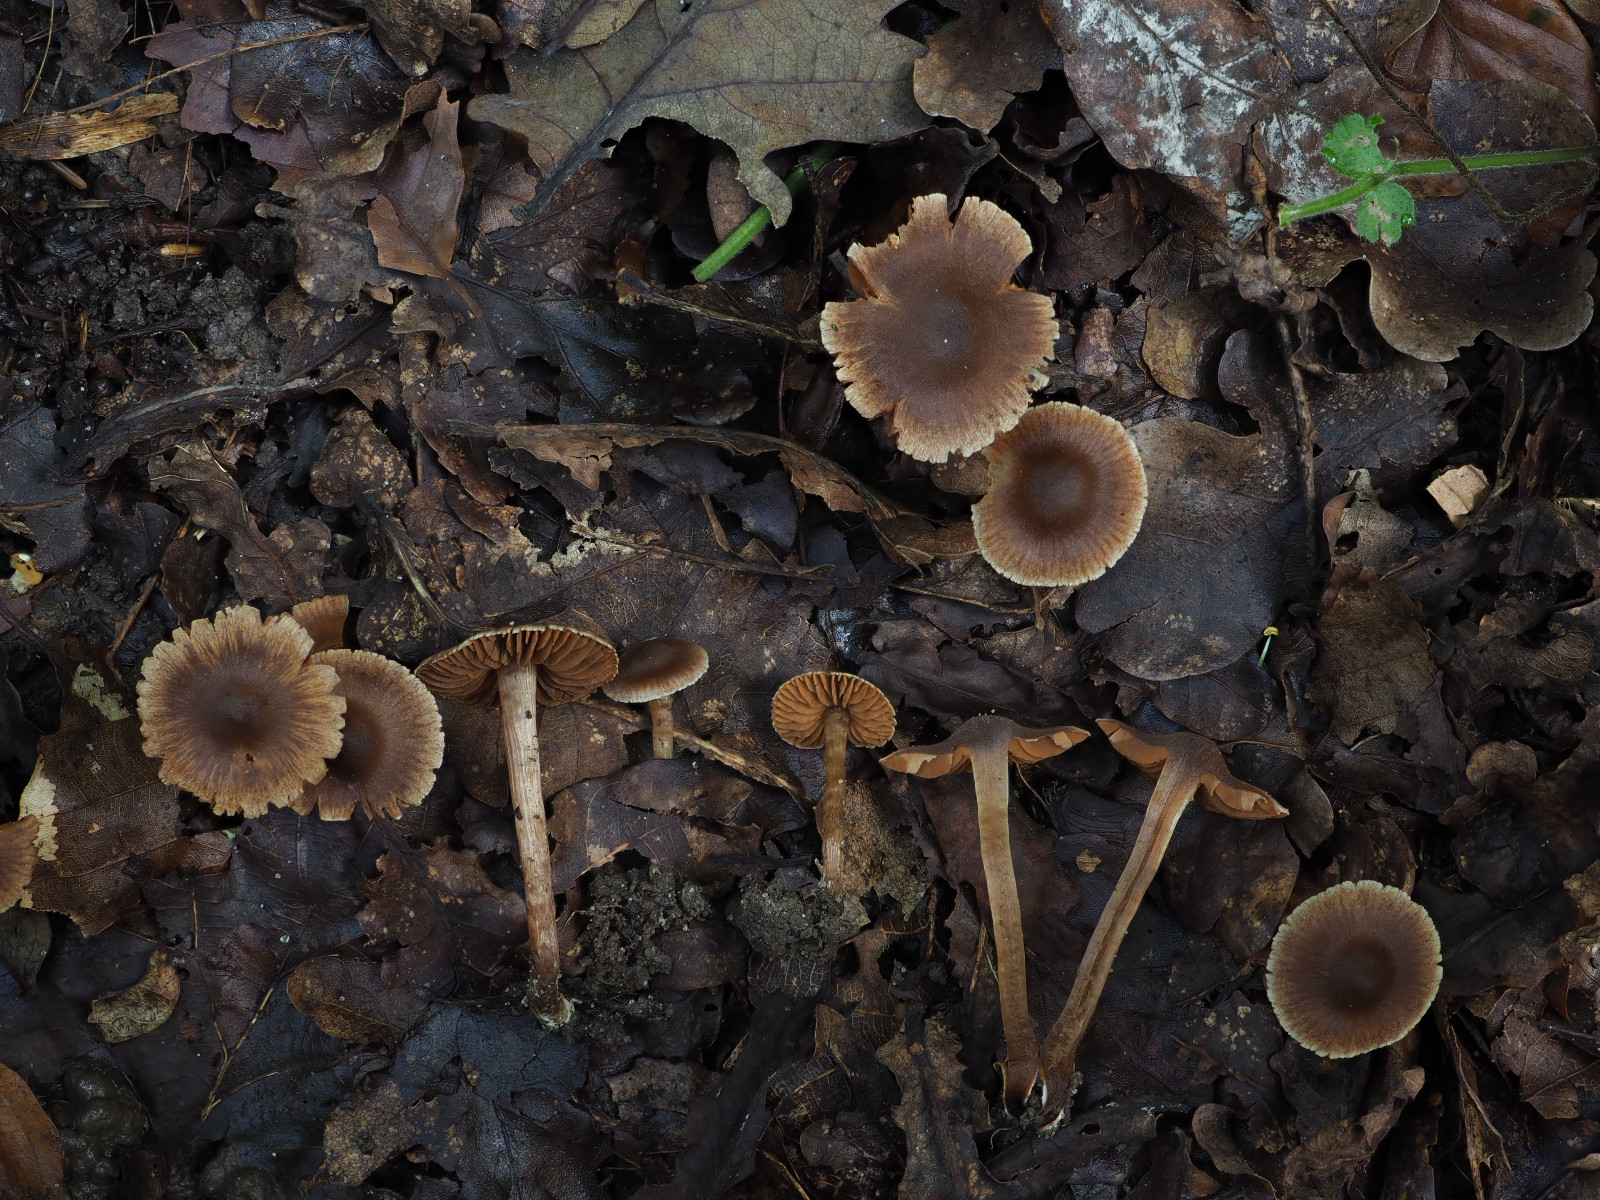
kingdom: Fungi
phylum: Basidiomycota
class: Agaricomycetes
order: Agaricales
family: Cortinariaceae
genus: Cortinarius
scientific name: Cortinarius flexibilifolius
